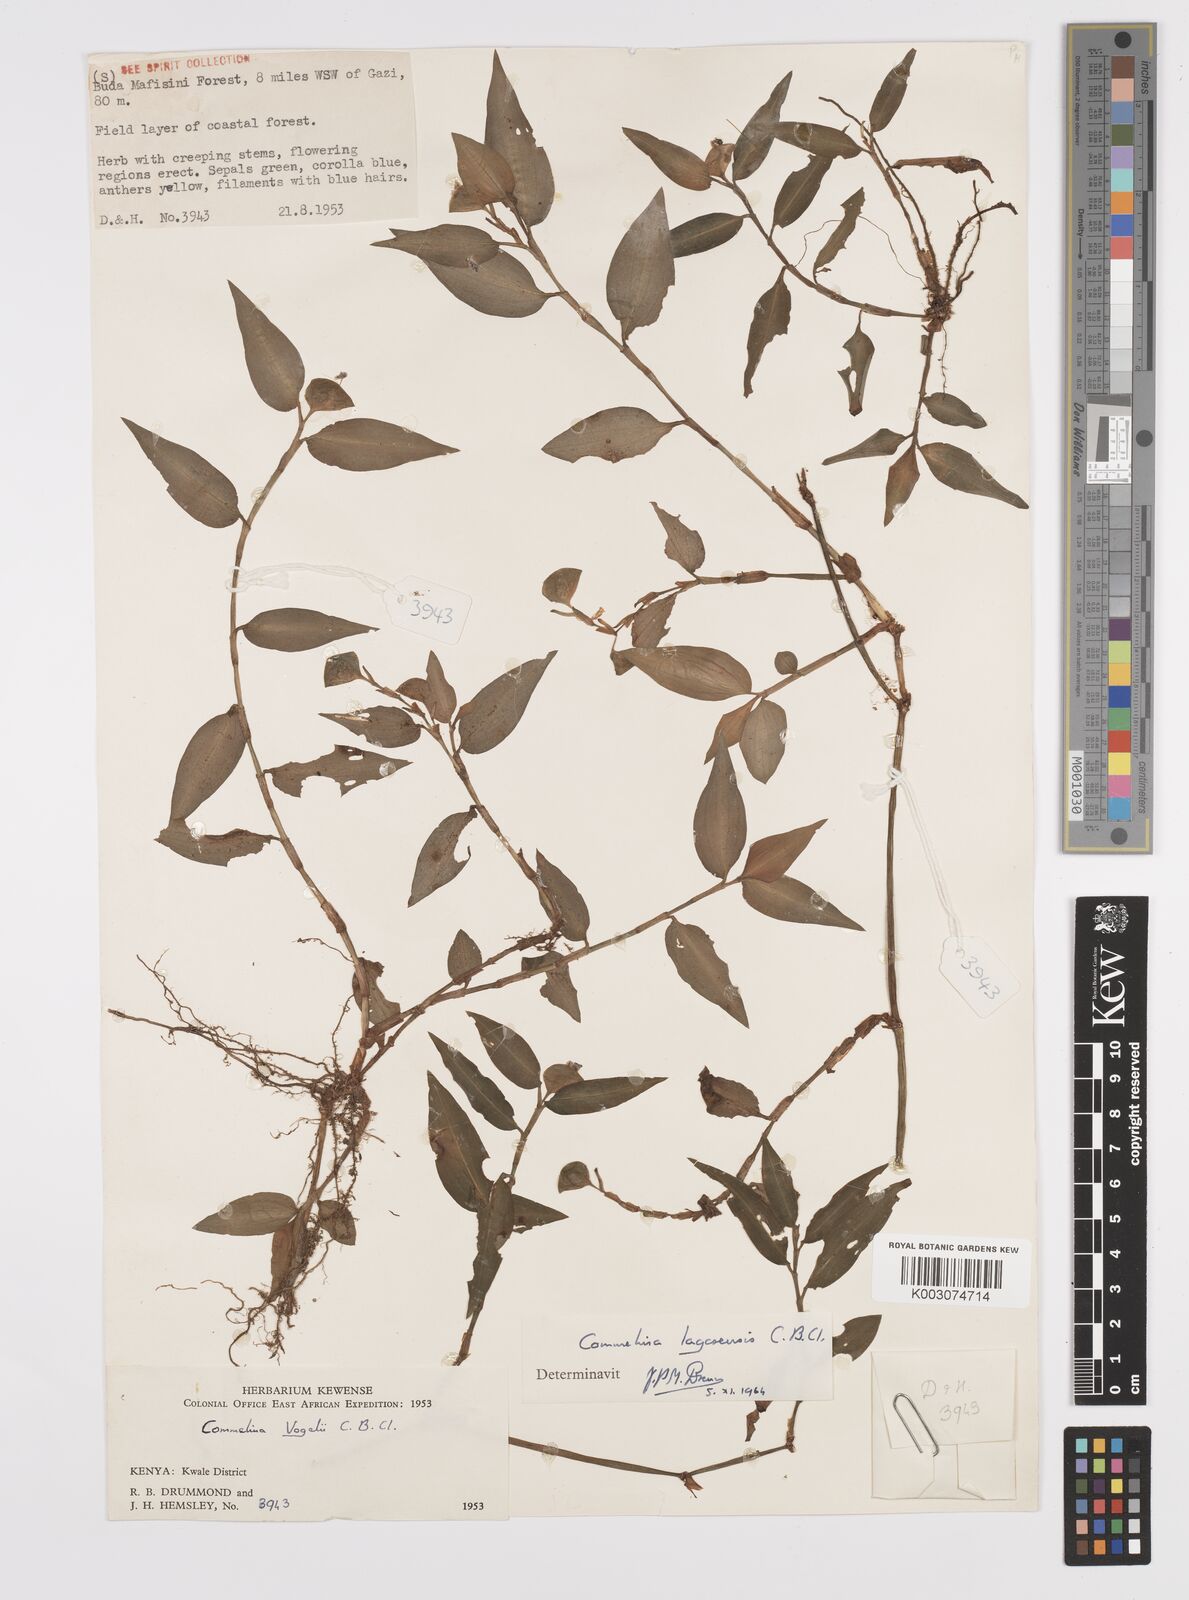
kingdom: Plantae
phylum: Tracheophyta
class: Liliopsida
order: Commelinales
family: Commelinaceae
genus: Commelina
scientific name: Commelina bracteosa
